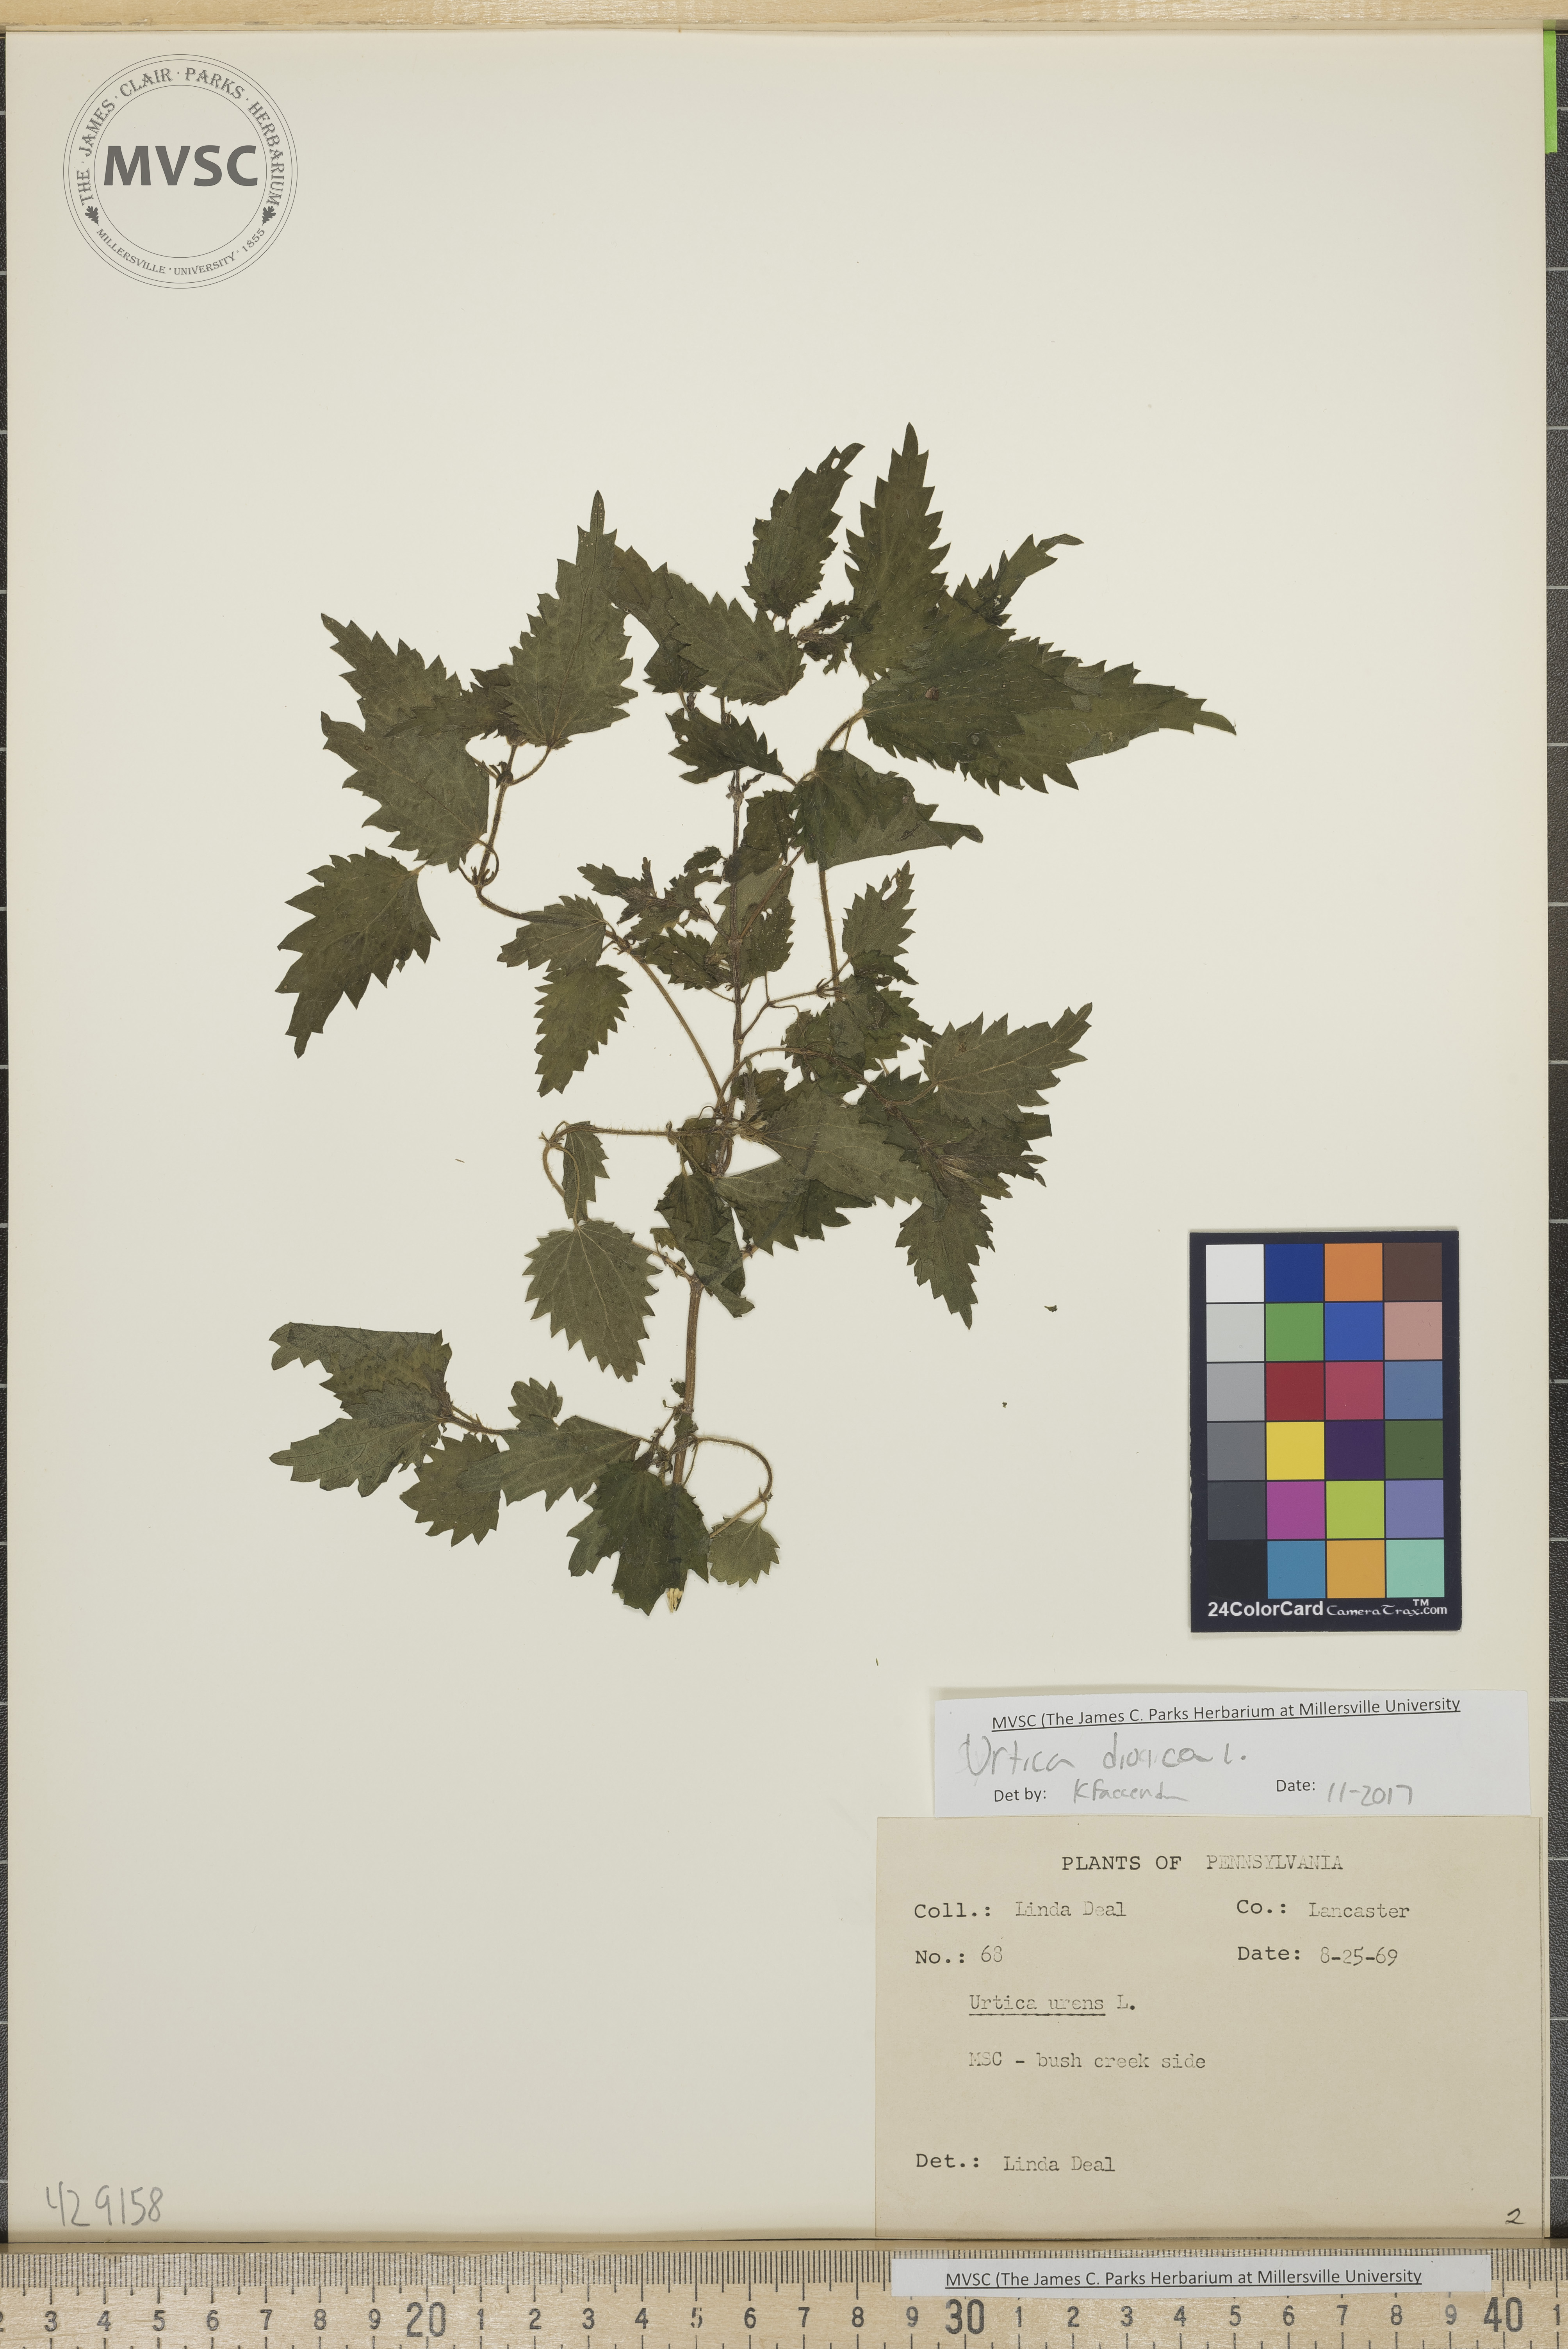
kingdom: Plantae
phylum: Tracheophyta
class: Magnoliopsida
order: Rosales
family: Urticaceae
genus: Urtica
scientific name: Urtica dioica
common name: Stinging nettle
